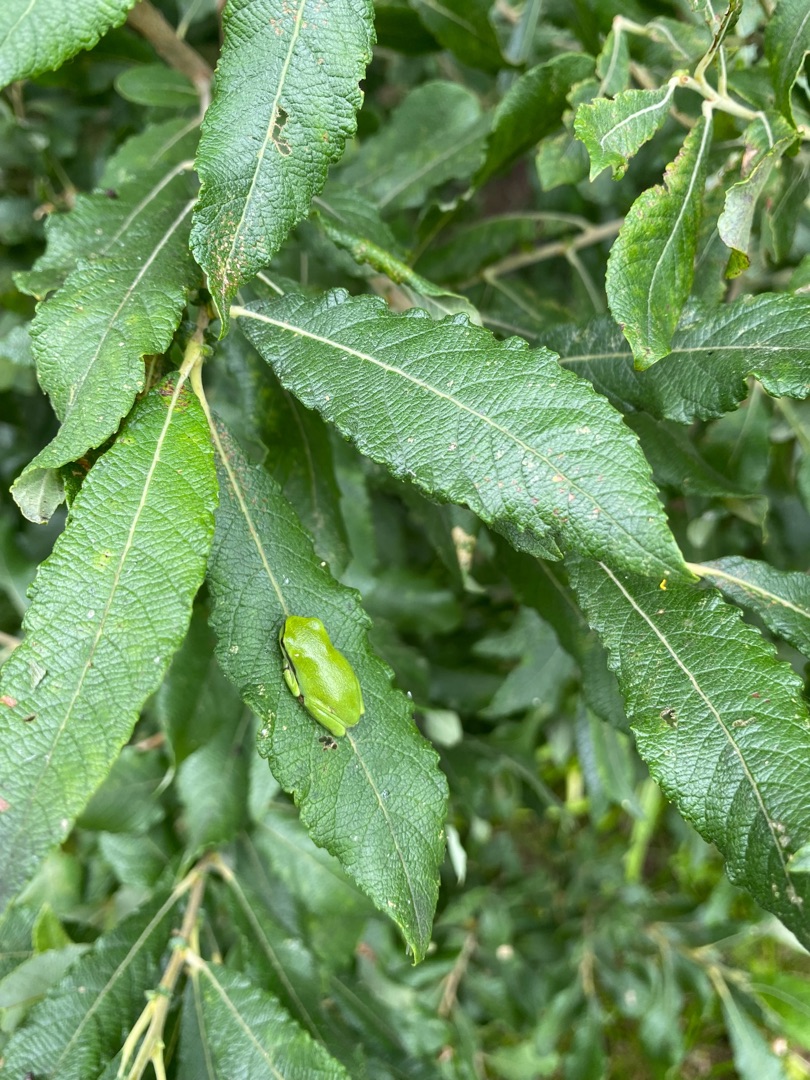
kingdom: Animalia
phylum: Chordata
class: Amphibia
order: Anura
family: Hylidae
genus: Hyla
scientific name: Hyla arborea
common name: Løvfrø
